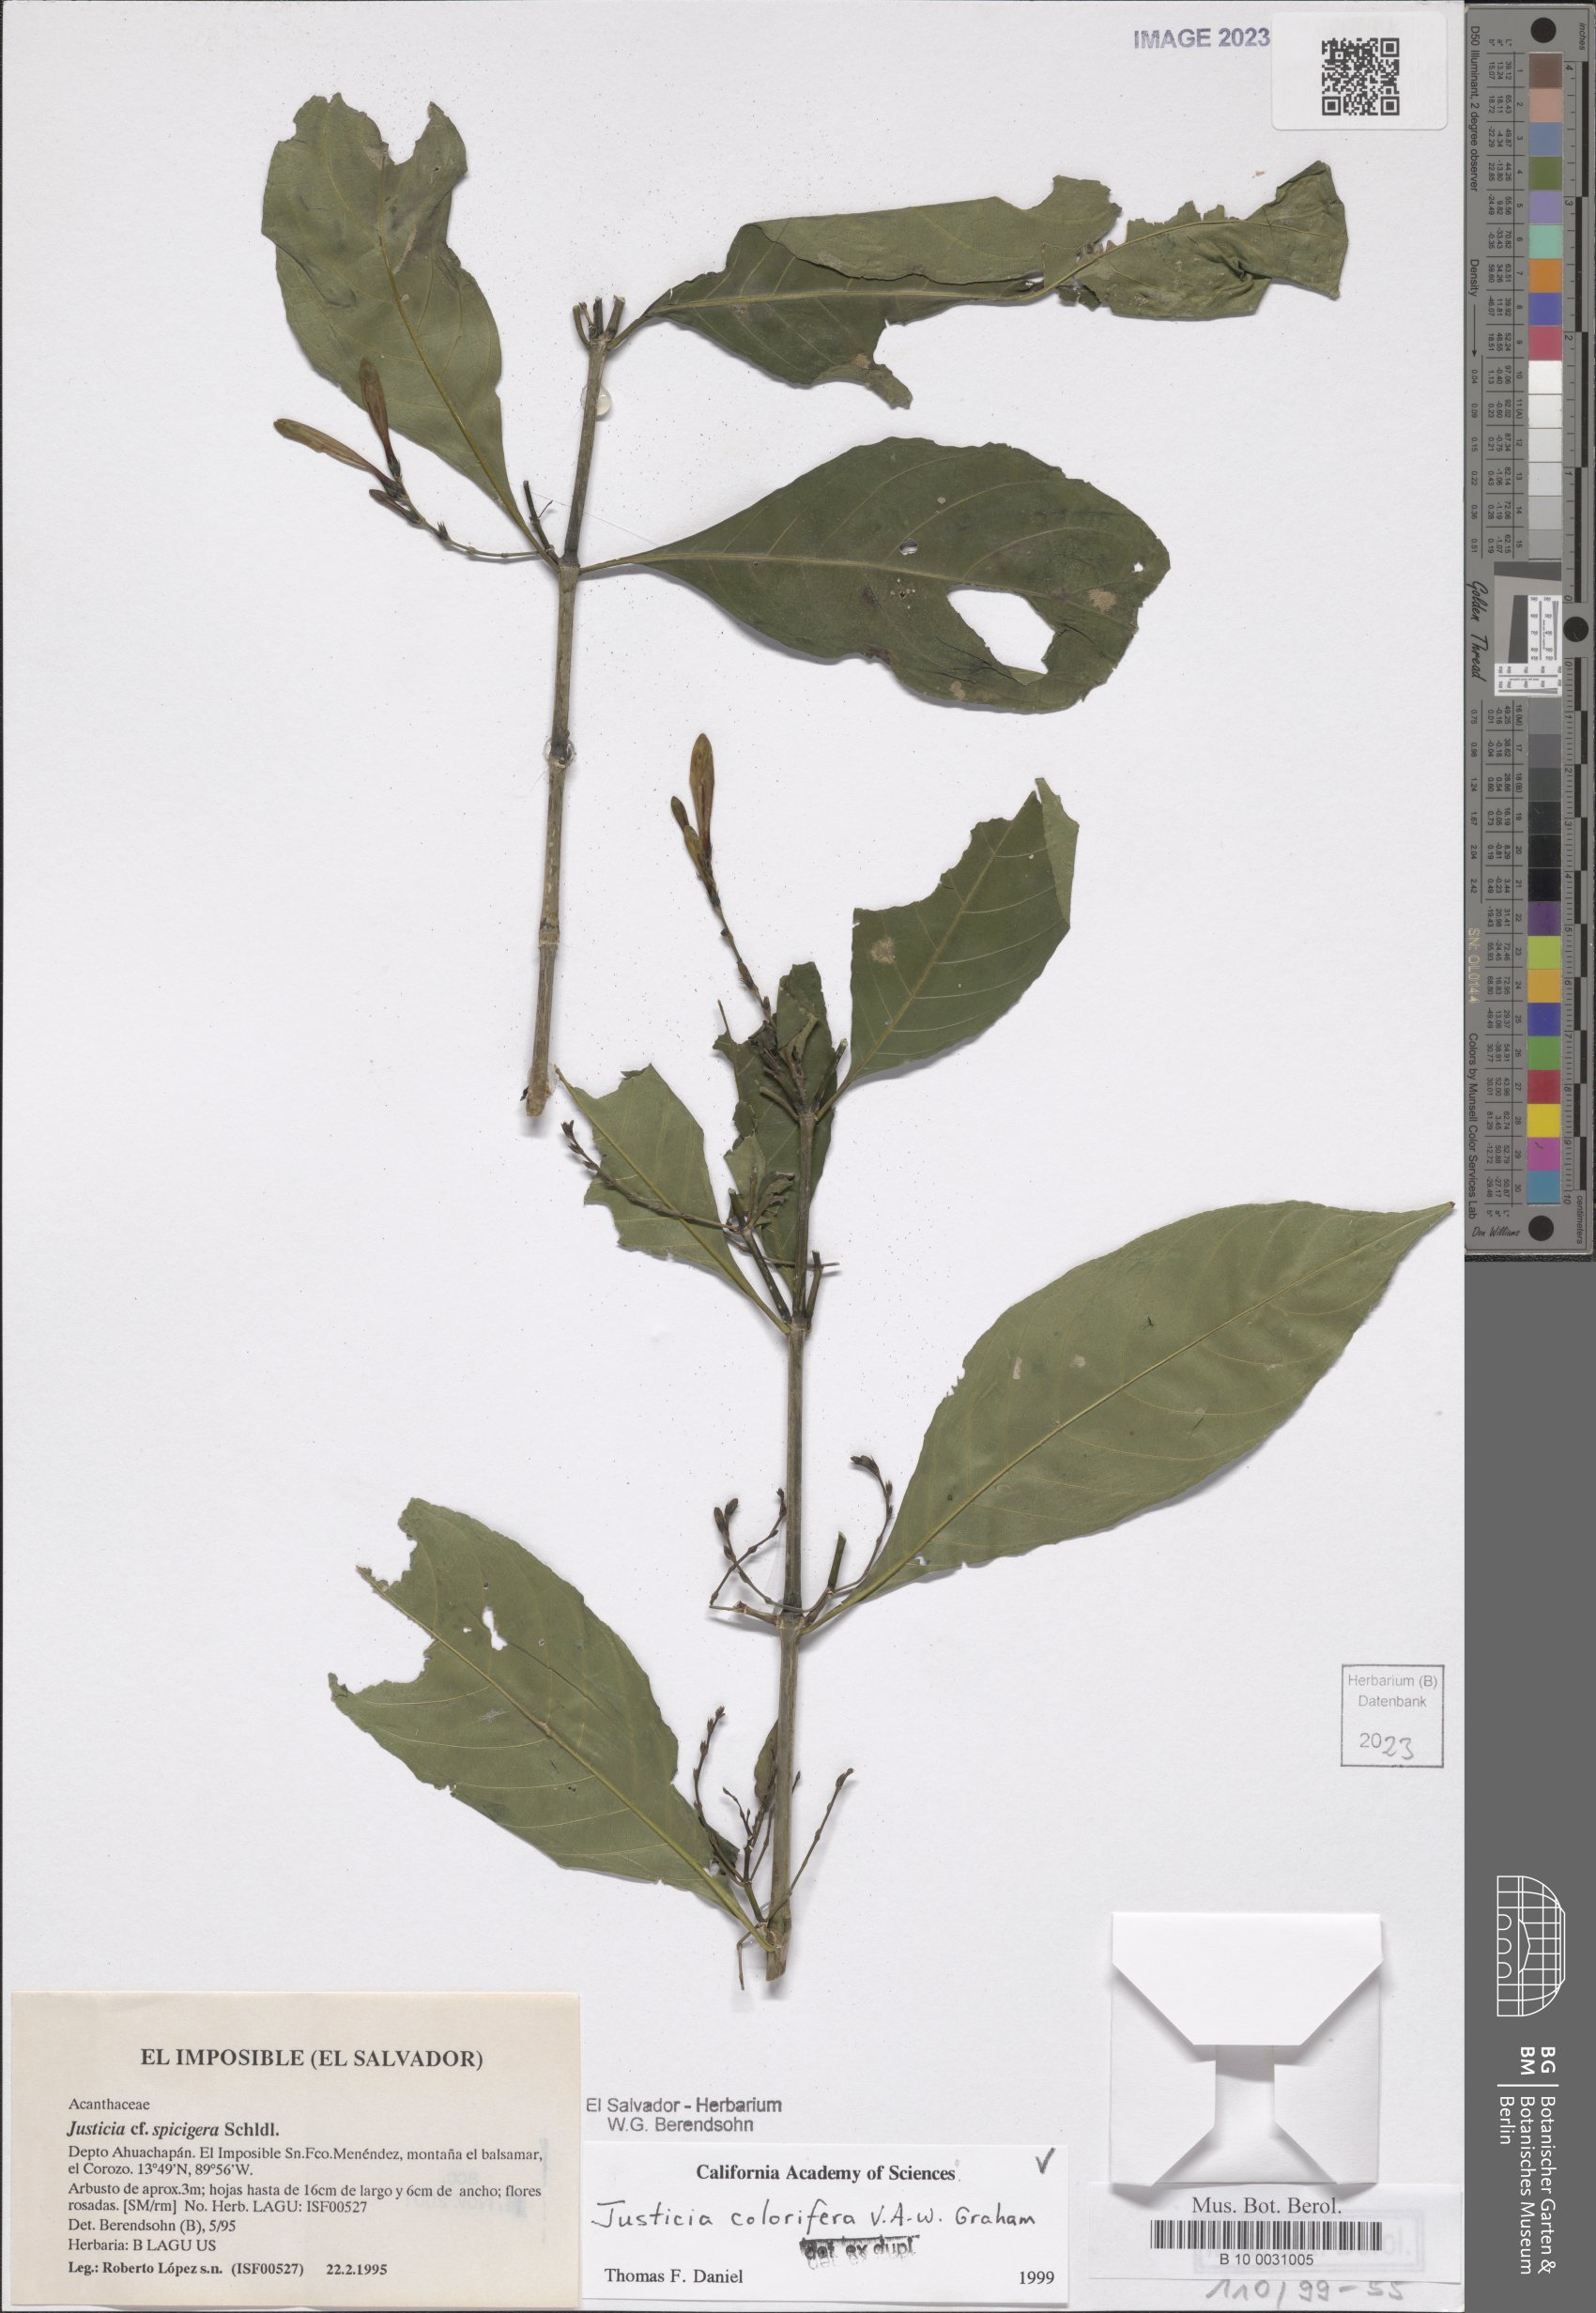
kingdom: Plantae
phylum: Tracheophyta
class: Magnoliopsida
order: Lamiales
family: Acanthaceae
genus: Justicia
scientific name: Justicia tinctoriella
